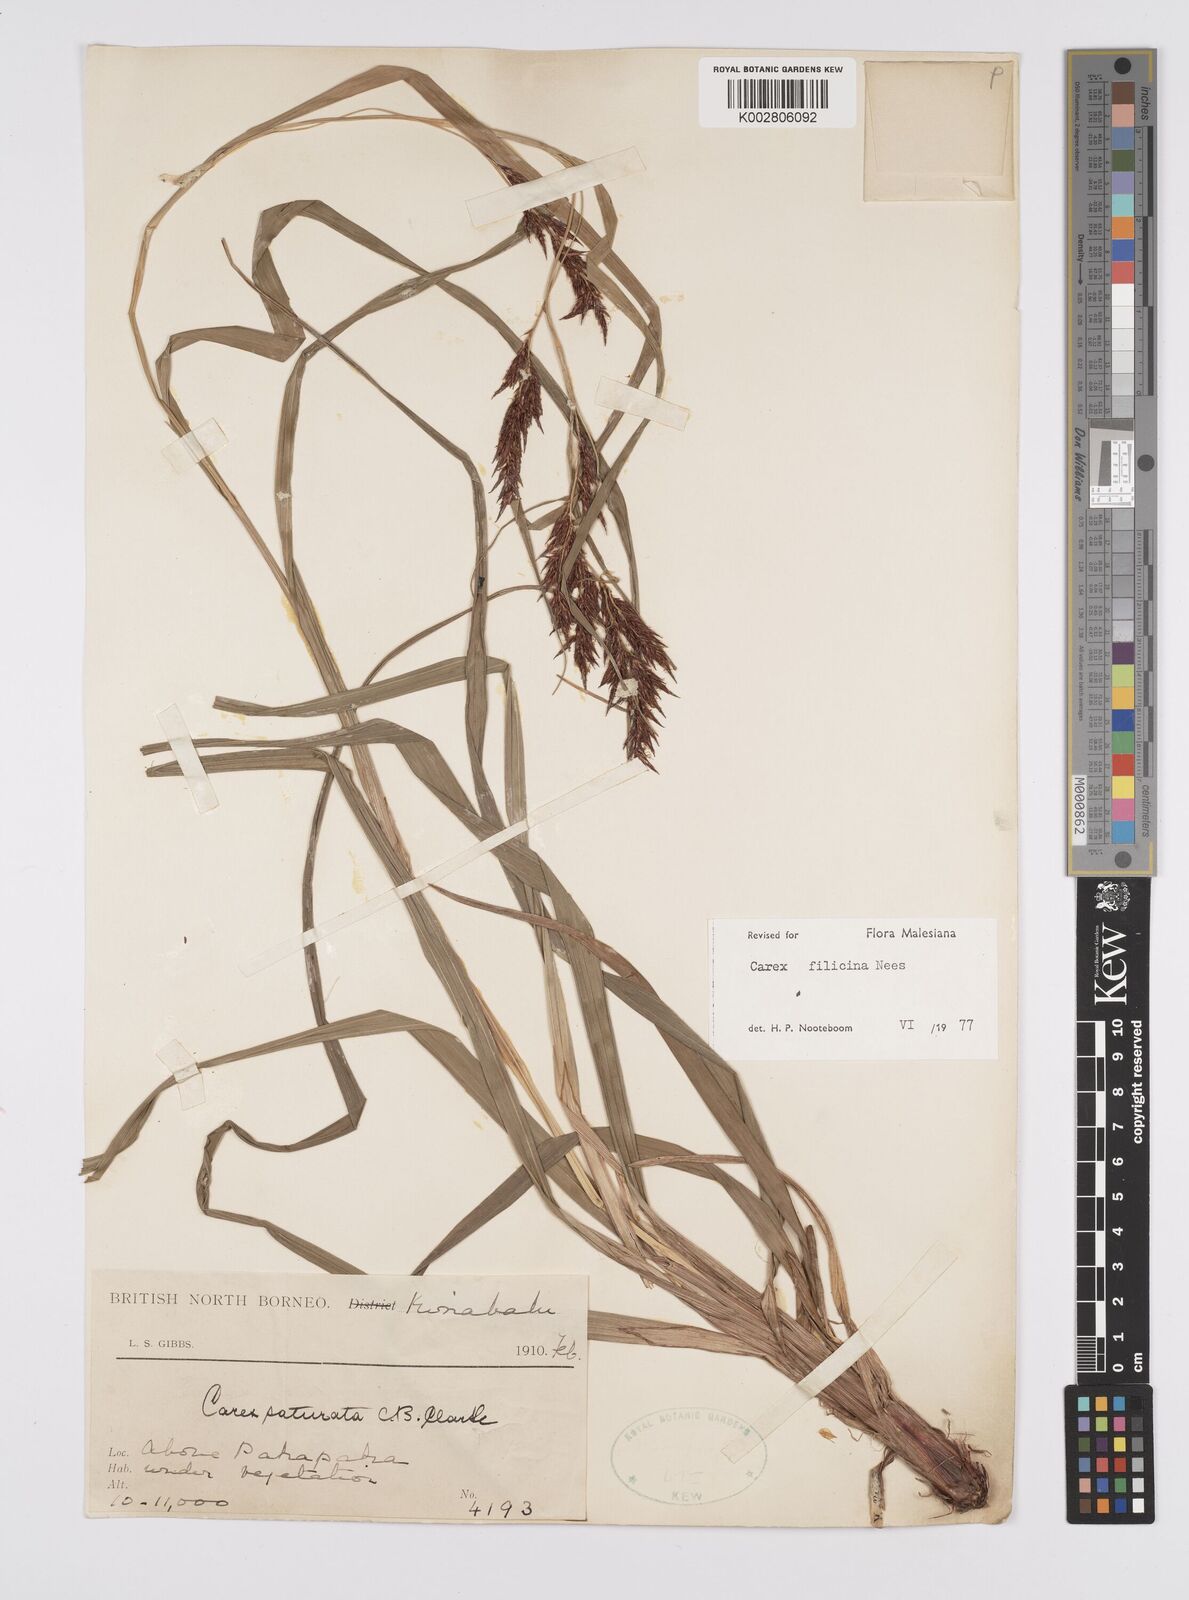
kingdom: Plantae
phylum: Tracheophyta
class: Liliopsida
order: Poales
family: Cyperaceae
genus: Carex
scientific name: Carex filicina
